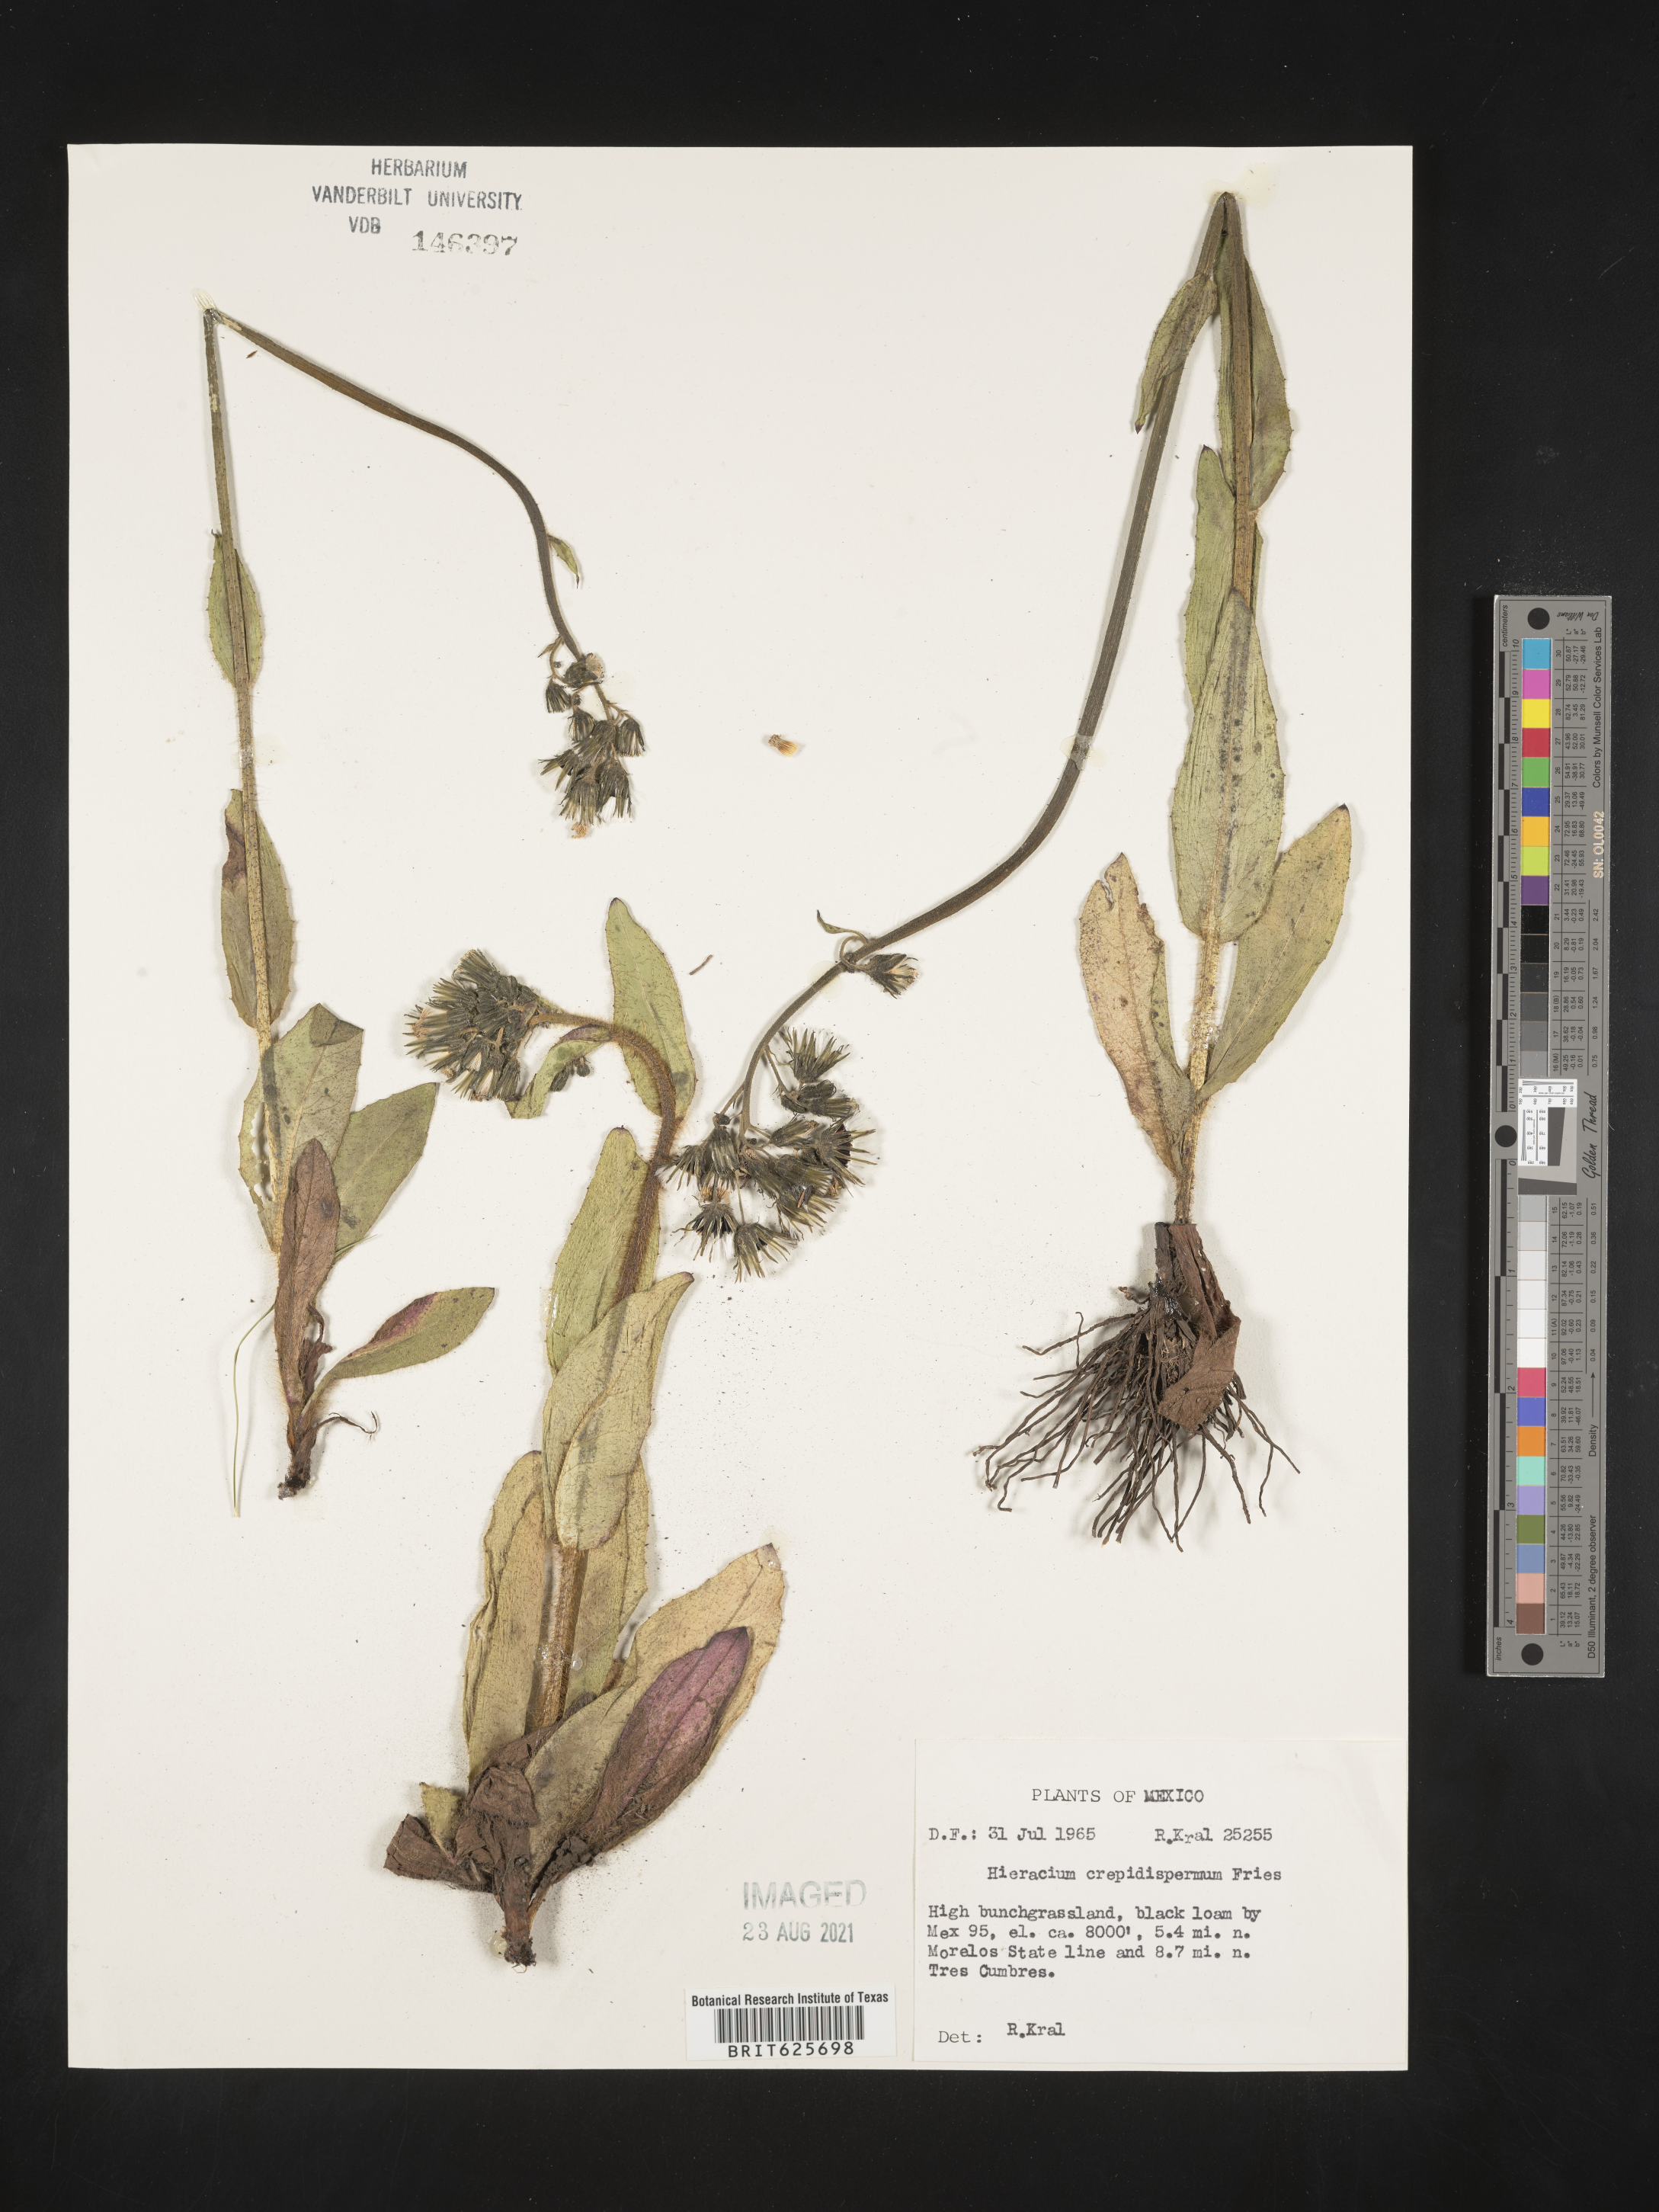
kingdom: Plantae
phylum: Tracheophyta
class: Magnoliopsida
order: Asterales
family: Asteraceae
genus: Hieracium
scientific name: Hieracium
